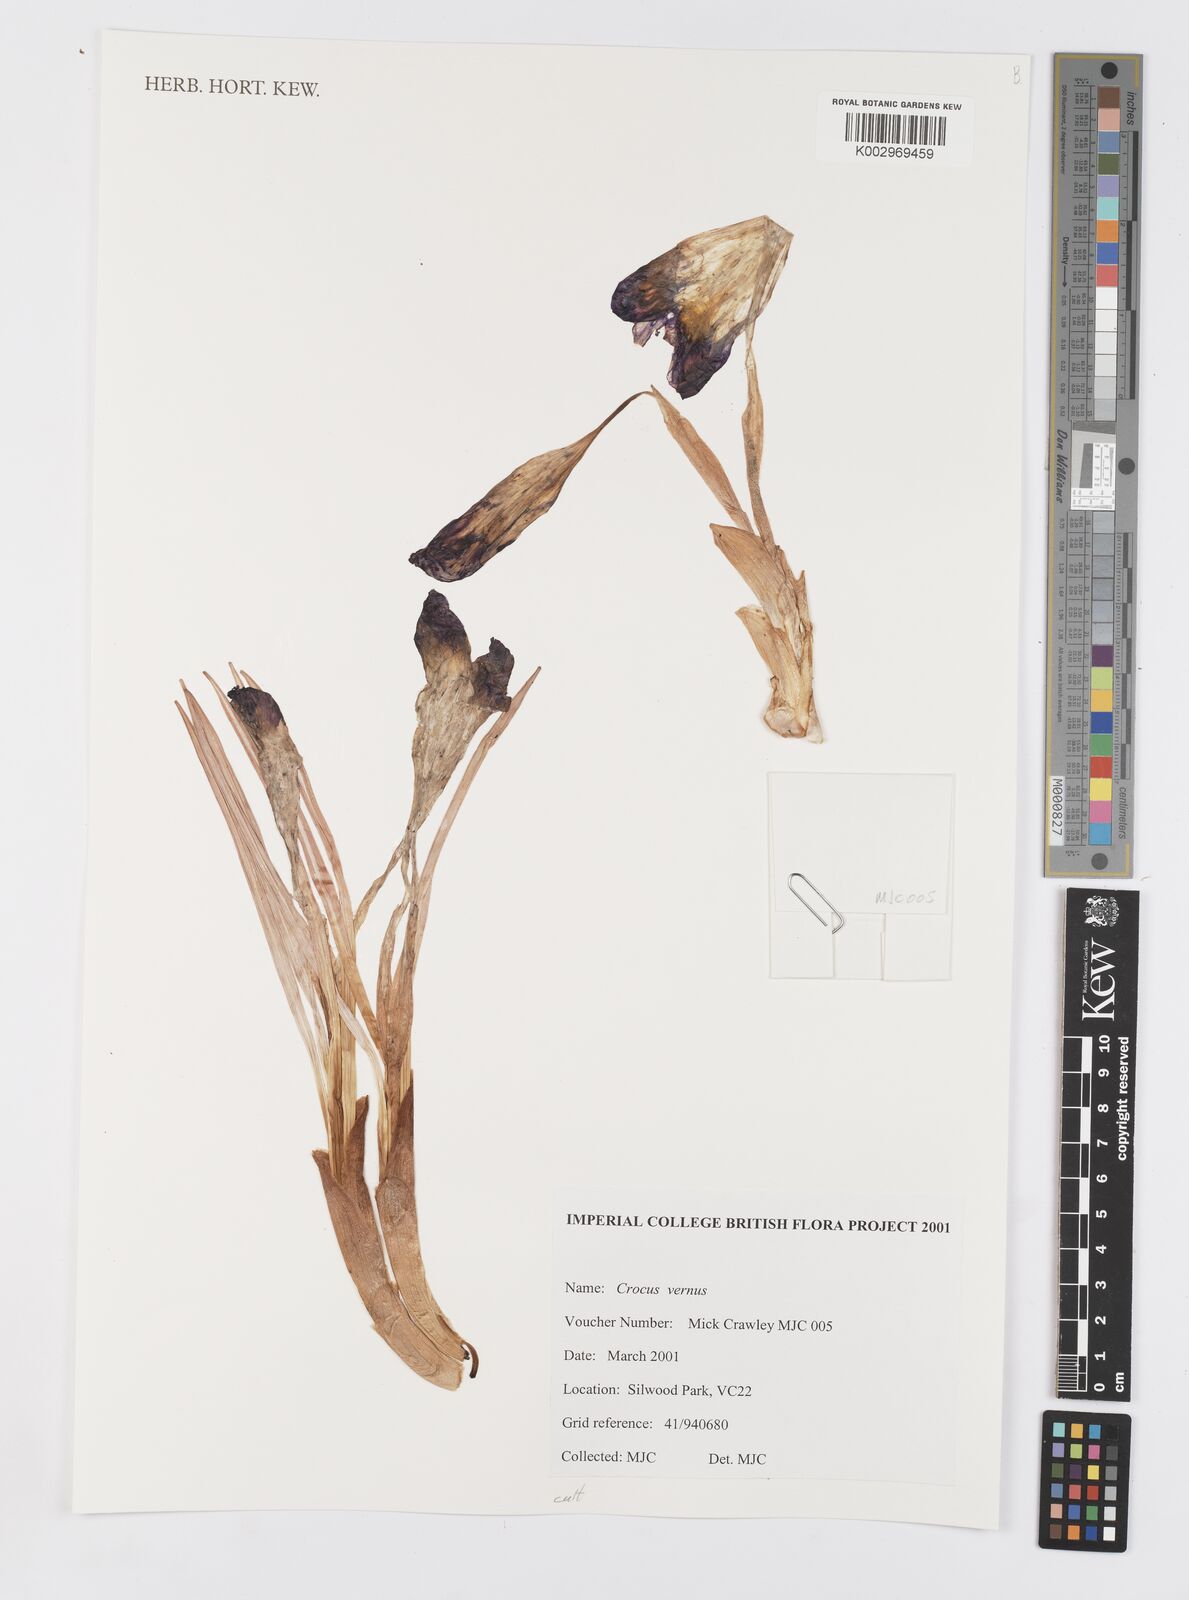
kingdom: Plantae
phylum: Tracheophyta
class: Liliopsida
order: Asparagales
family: Iridaceae
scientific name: Iridaceae
